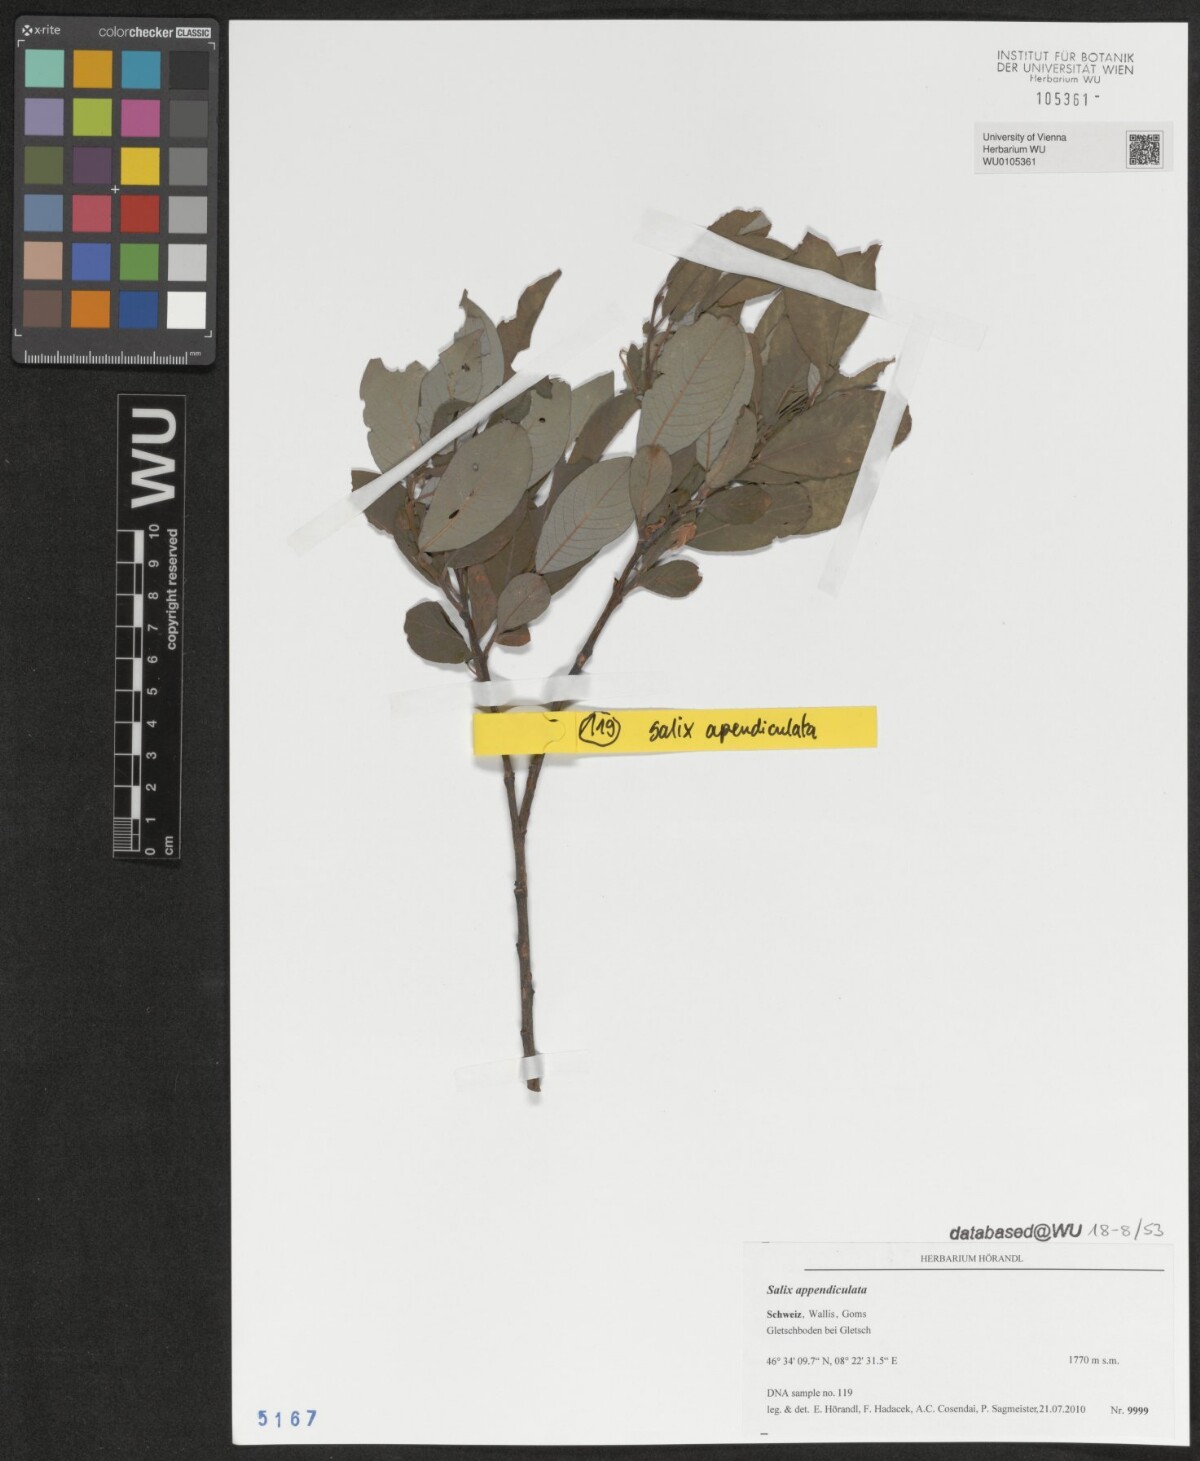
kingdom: Plantae
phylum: Tracheophyta
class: Magnoliopsida
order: Malpighiales
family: Salicaceae
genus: Salix
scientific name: Salix appendiculata
